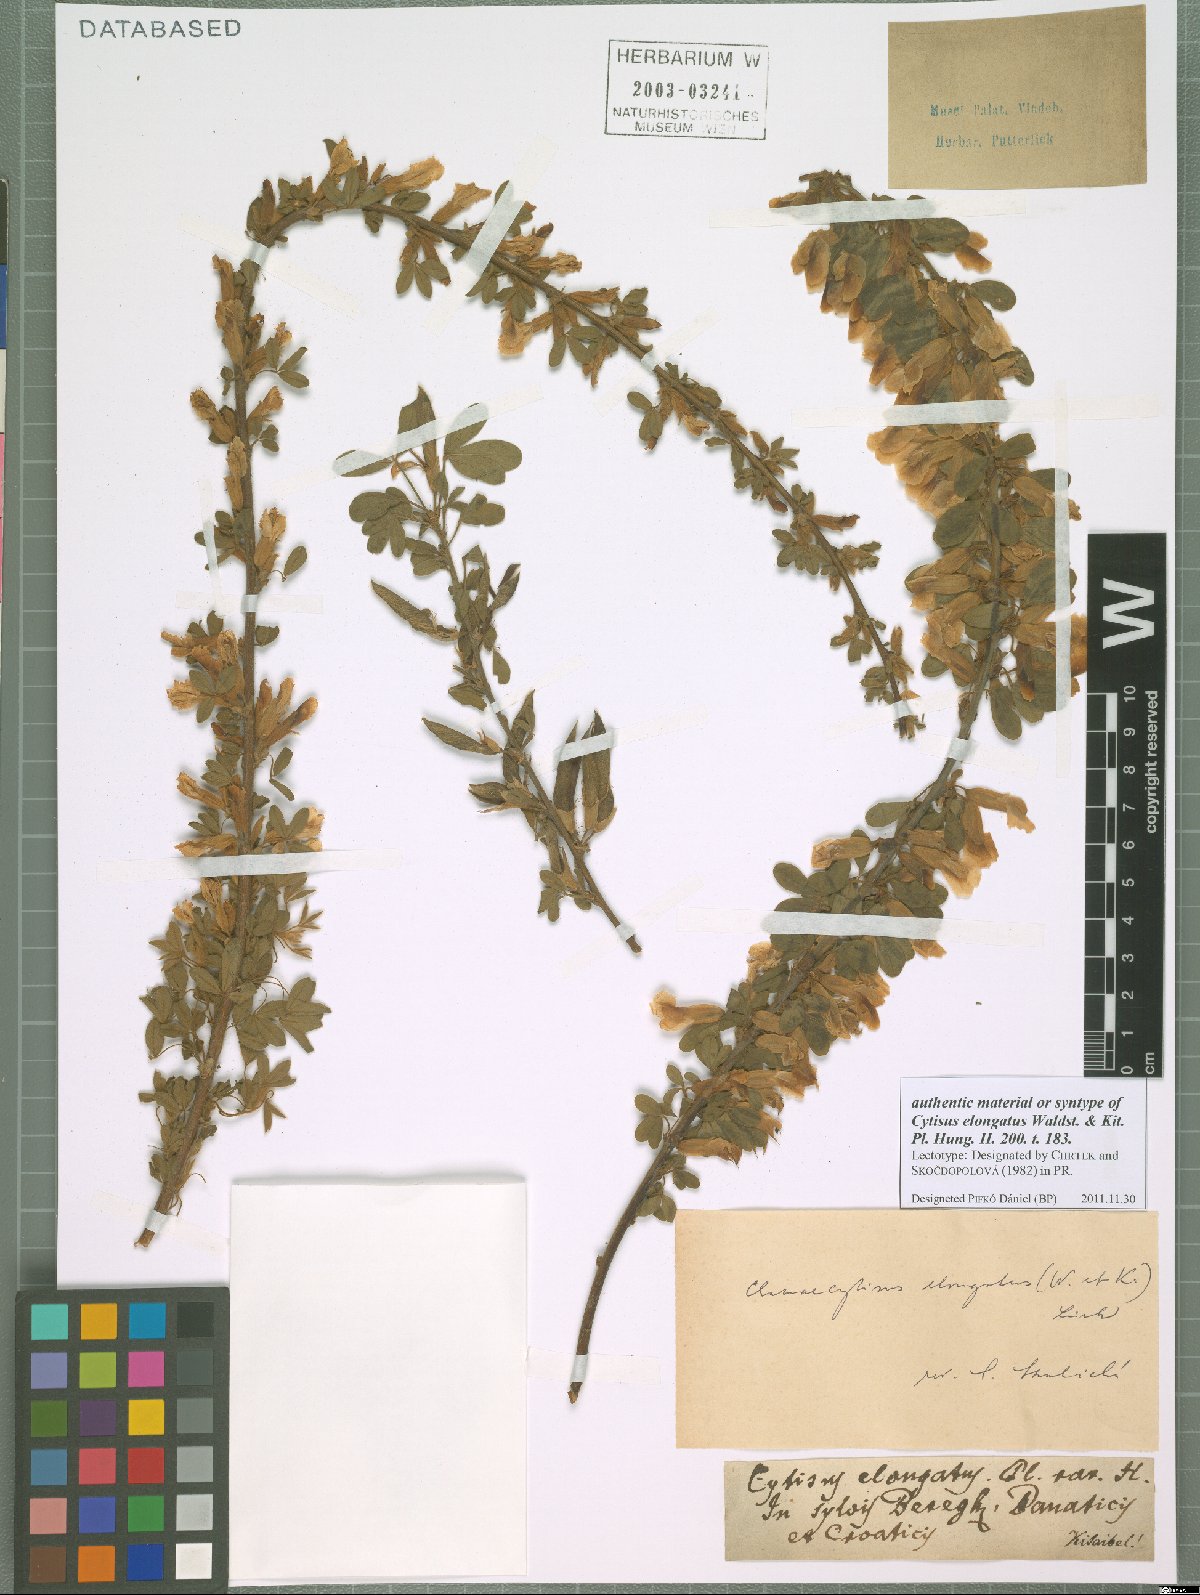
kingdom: Plantae
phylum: Tracheophyta
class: Magnoliopsida
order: Fabales
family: Fabaceae
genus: Chamaecytisus
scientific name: Chamaecytisus elongatus
